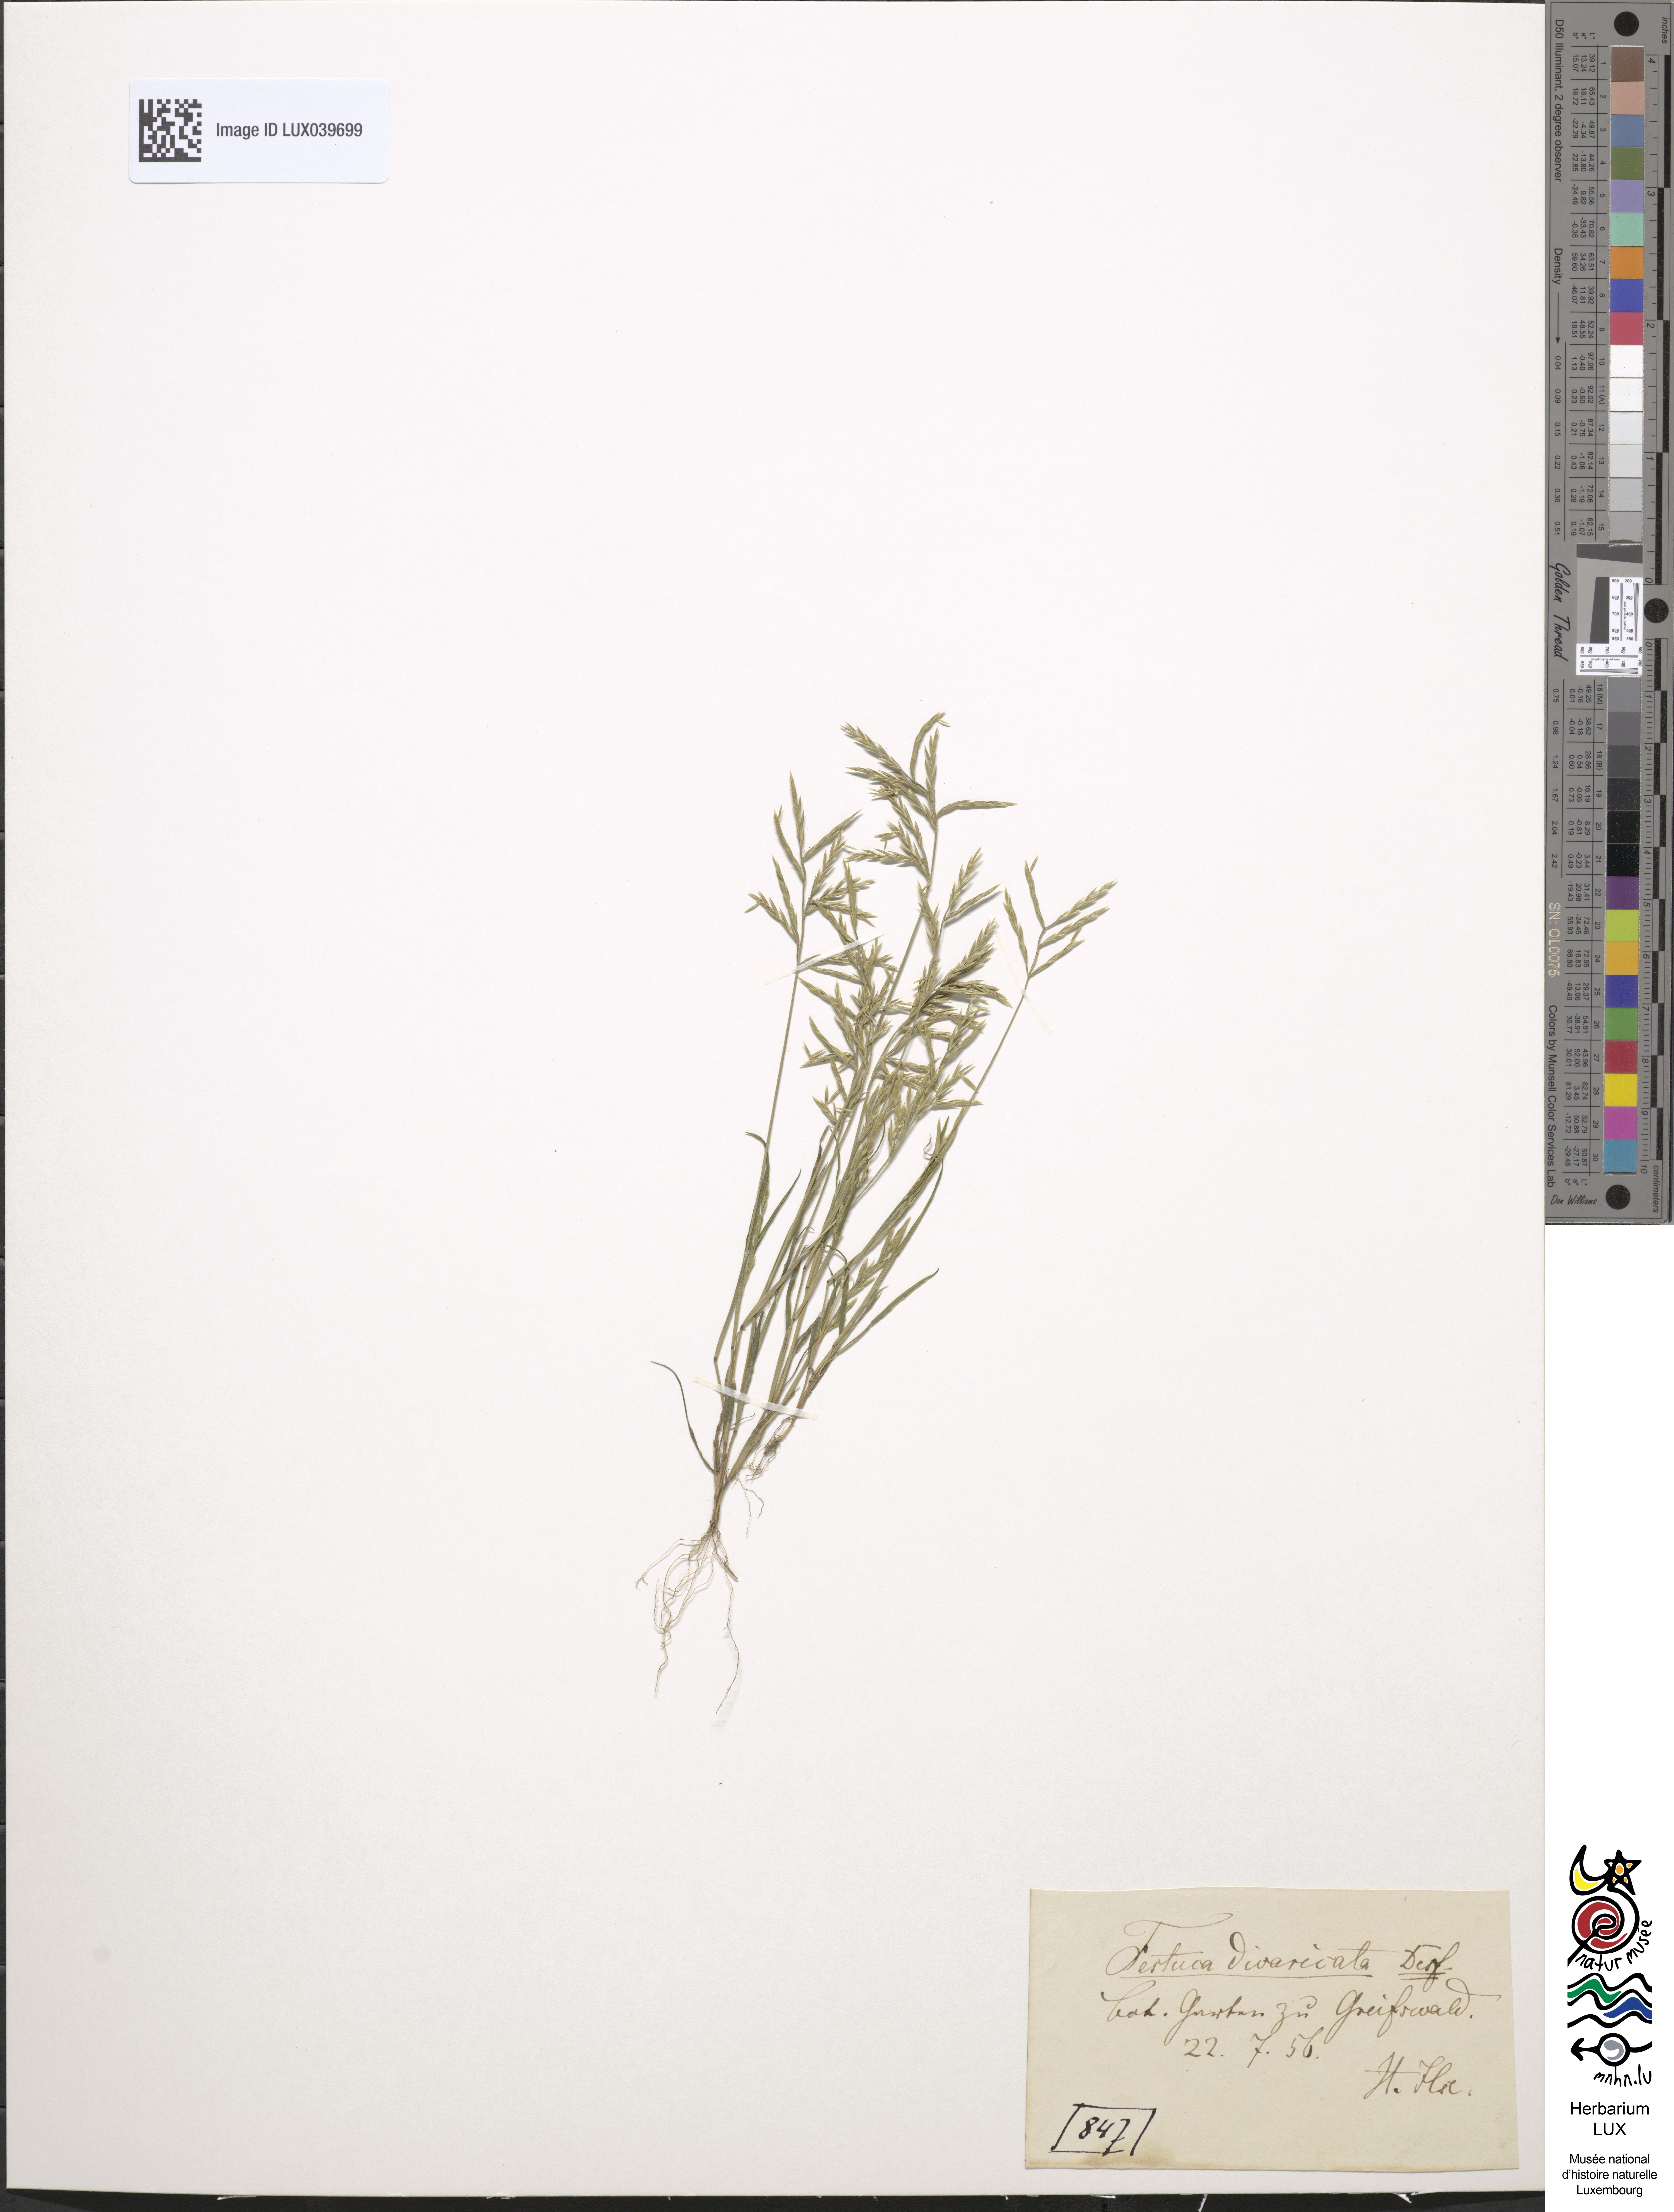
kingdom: Plantae
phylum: Tracheophyta
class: Liliopsida
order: Poales
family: Poaceae
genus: Cutandia
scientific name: Cutandia divaricata
